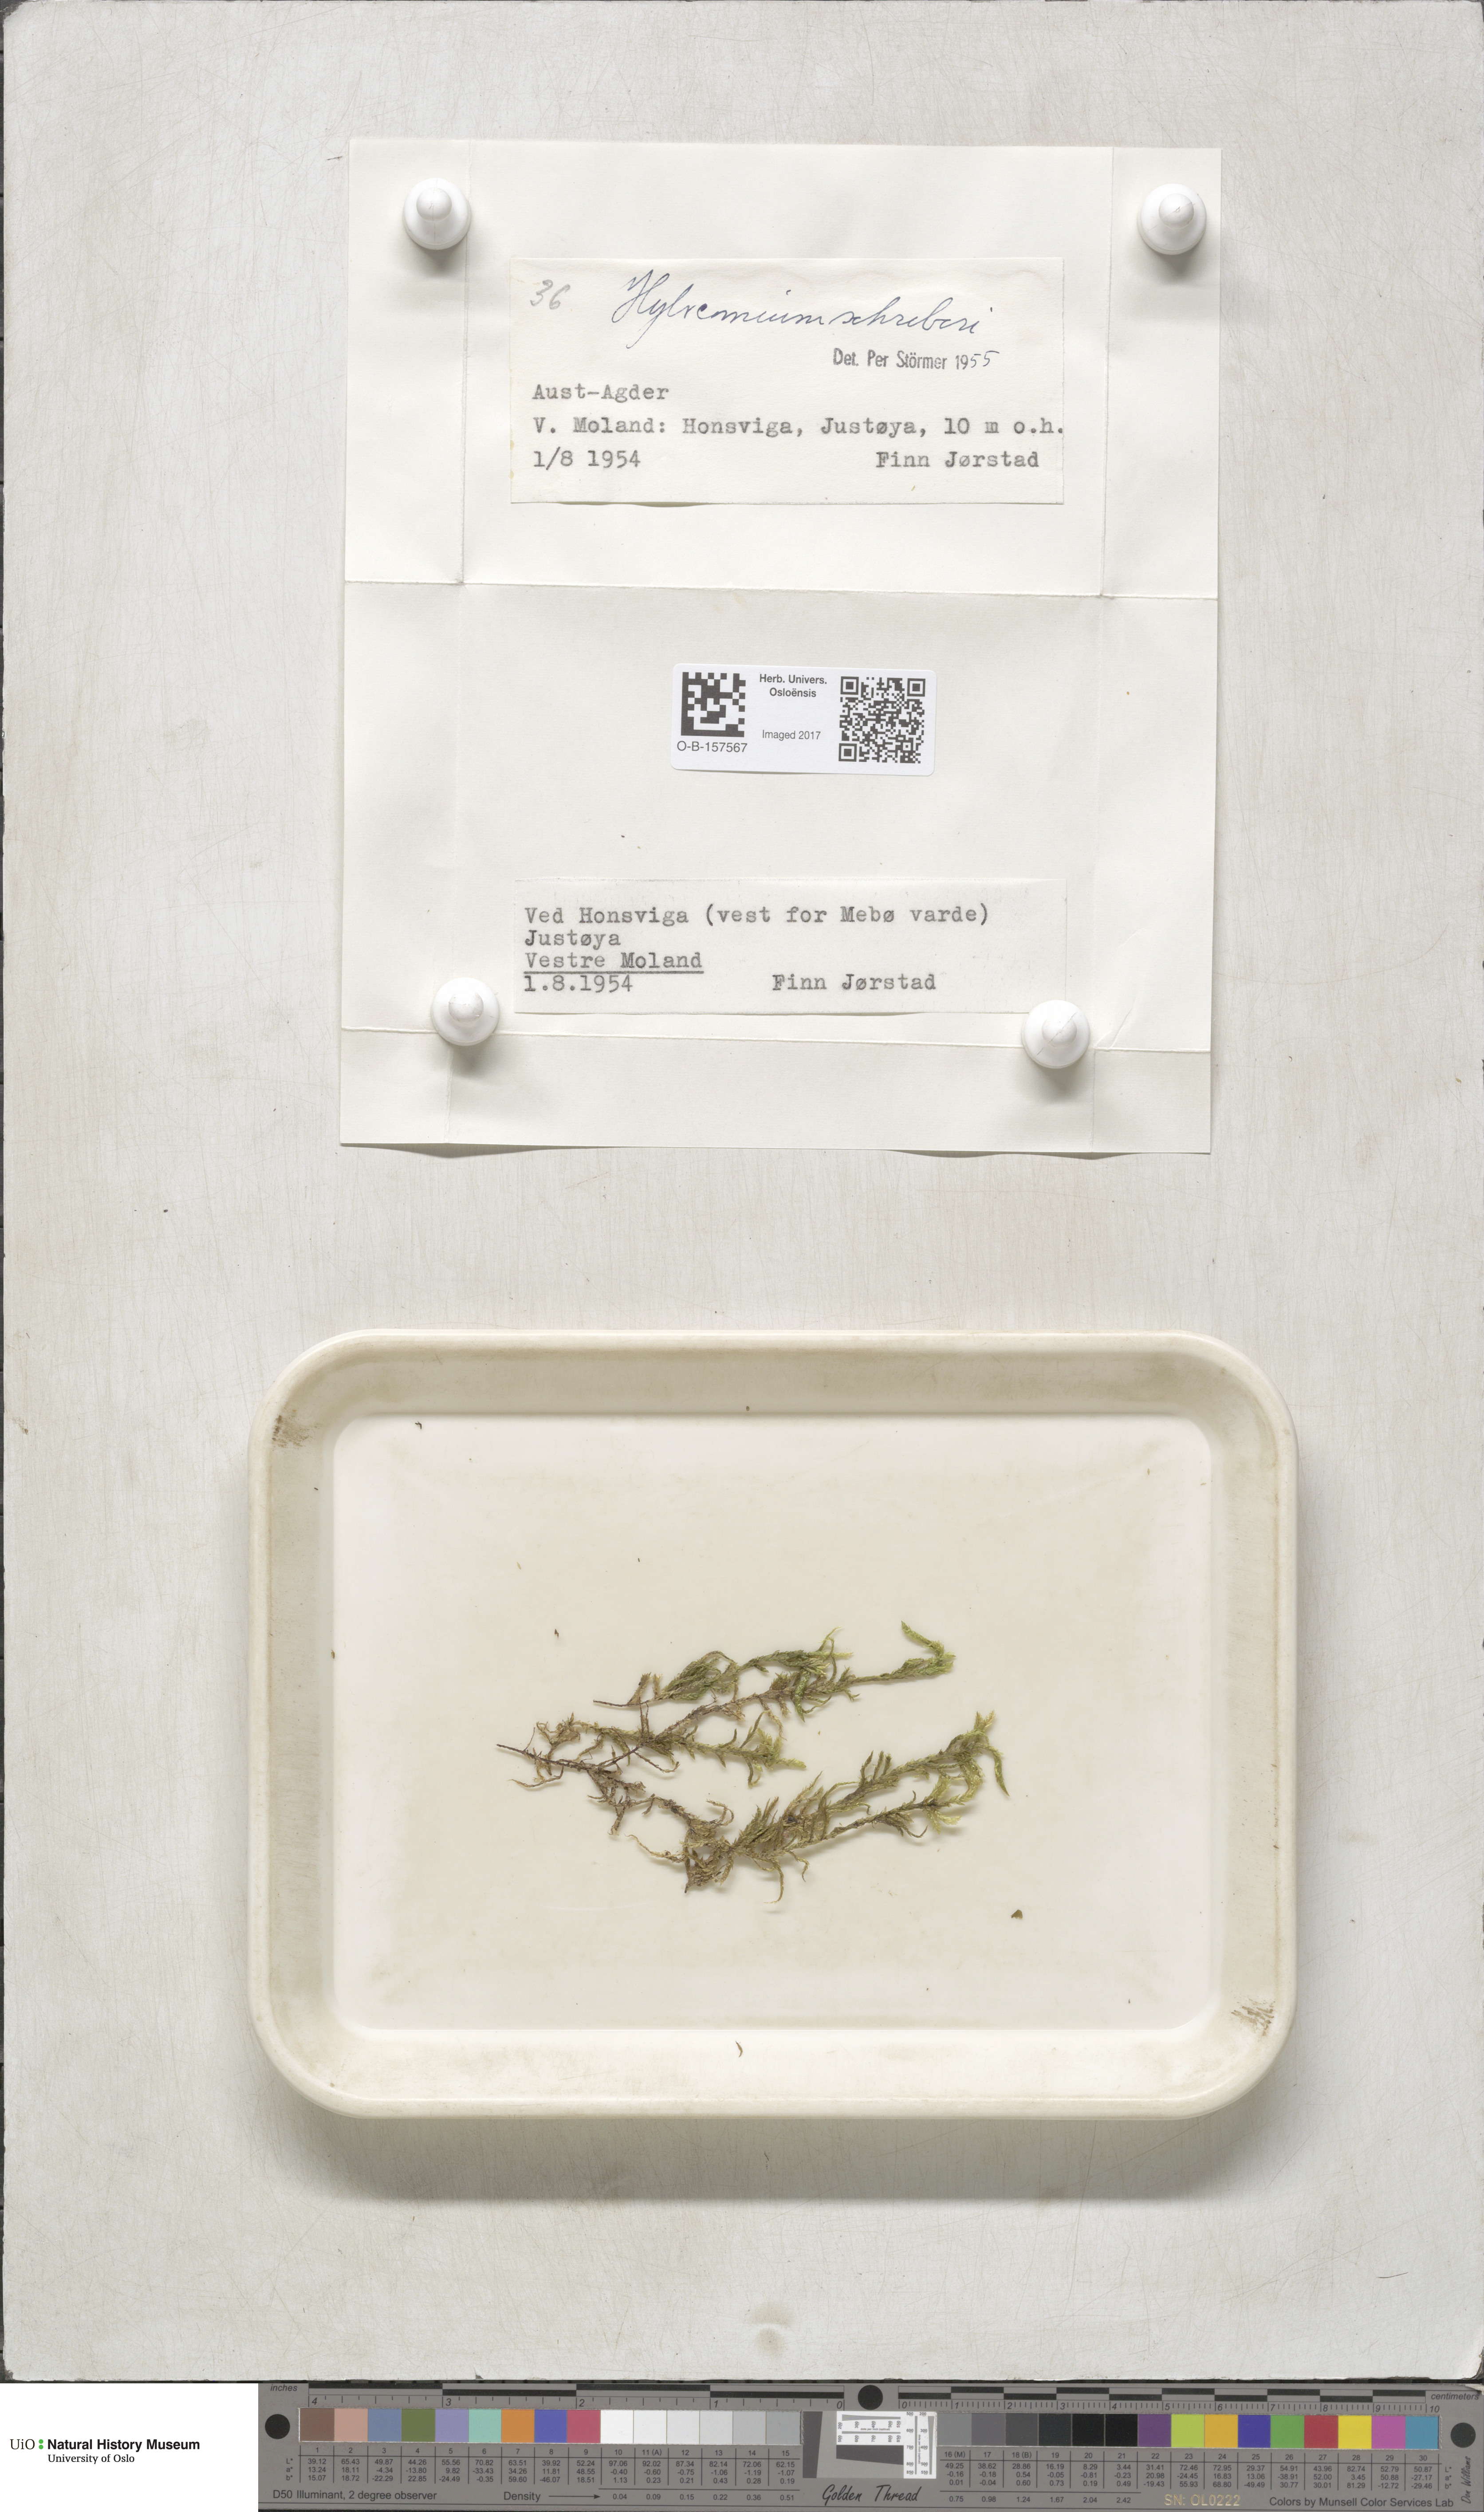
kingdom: Plantae
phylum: Bryophyta
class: Bryopsida
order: Hypnales
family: Hylocomiaceae
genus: Pleurozium
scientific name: Pleurozium schreberi
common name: Red-stemmed feather moss
